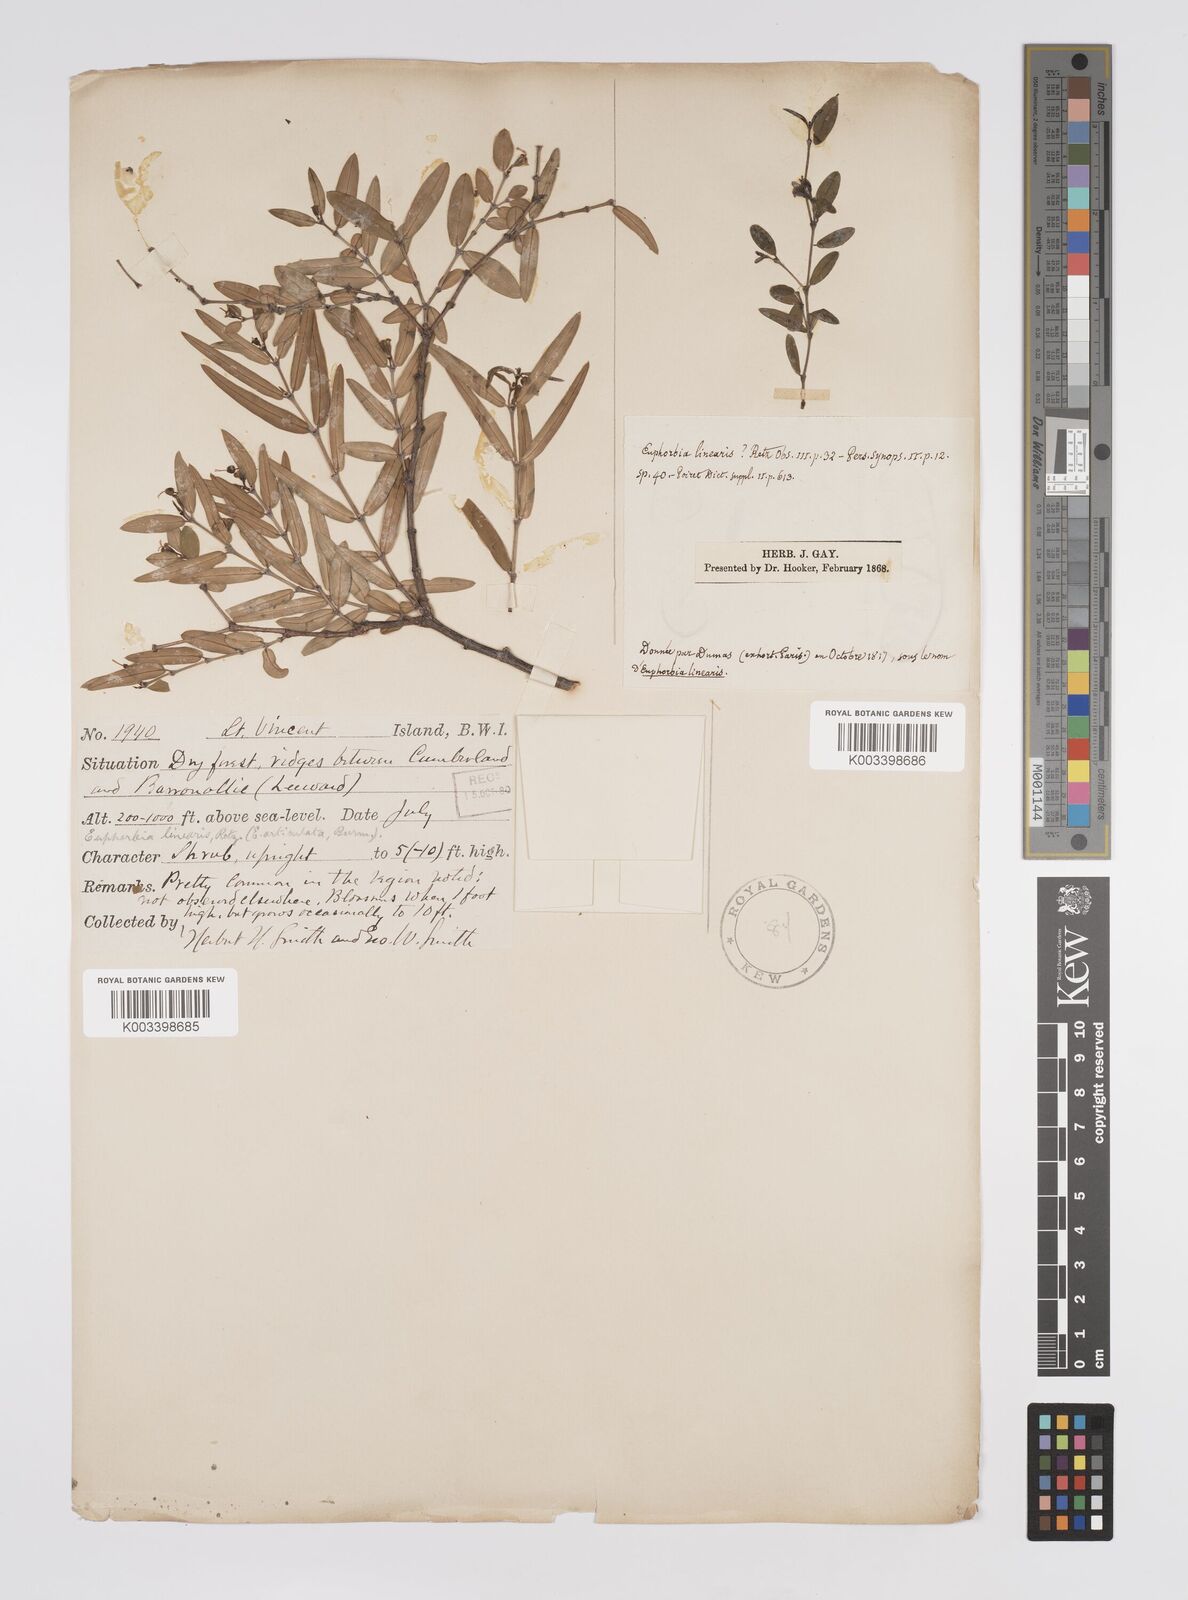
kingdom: Plantae
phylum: Tracheophyta
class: Magnoliopsida
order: Malpighiales
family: Euphorbiaceae
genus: Euphorbia
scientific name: Euphorbia articulata
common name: Jointed sandmat
